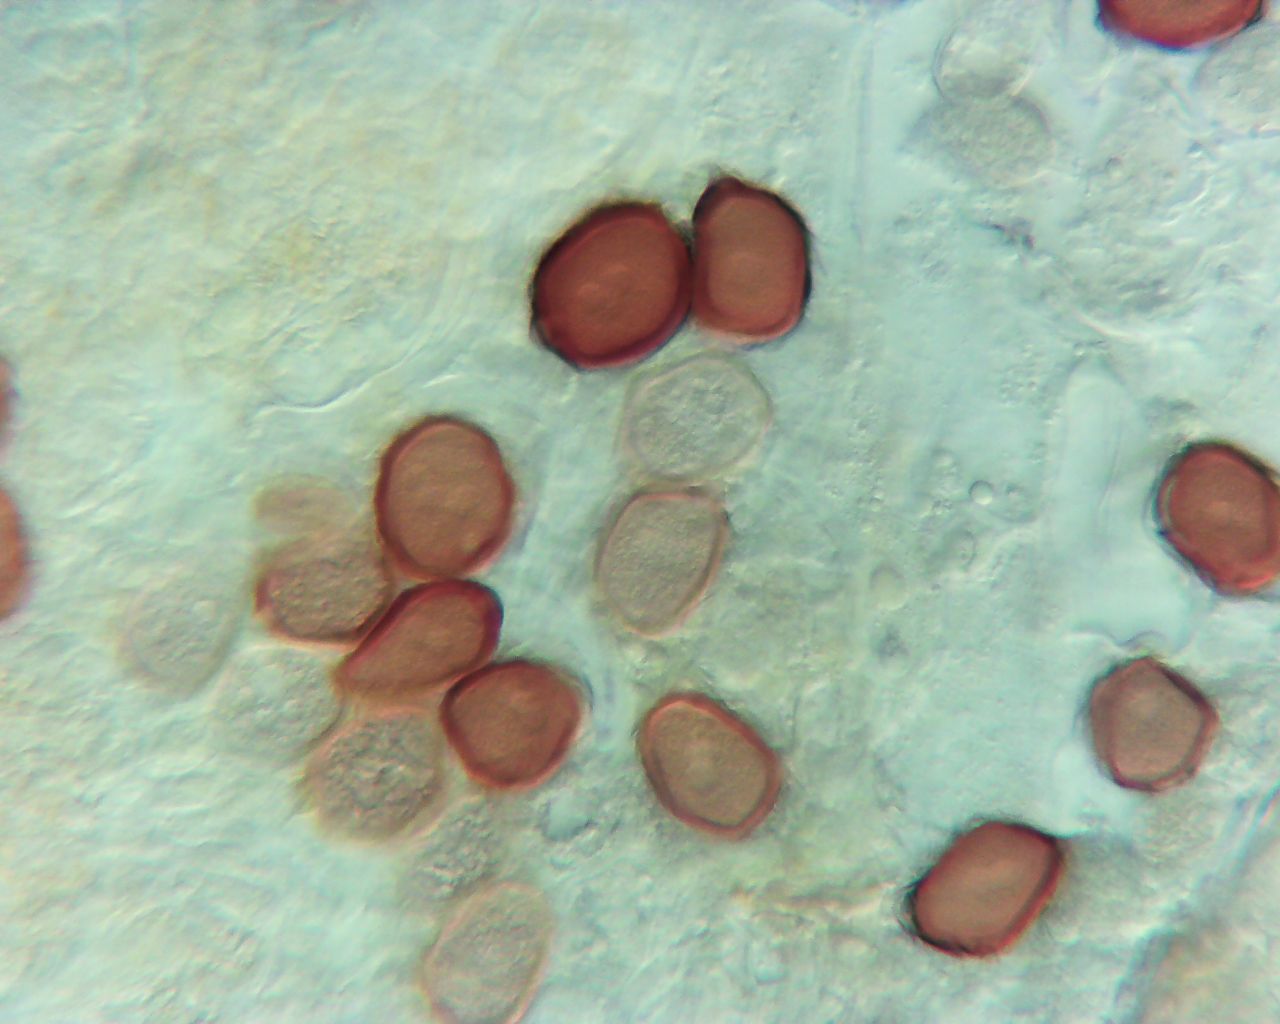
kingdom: Fungi
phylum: Basidiomycota
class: Pucciniomycetes
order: Pucciniales
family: Pucciniaceae
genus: Uromyces
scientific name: Uromyces ficariae
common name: vorterod-encellerust
